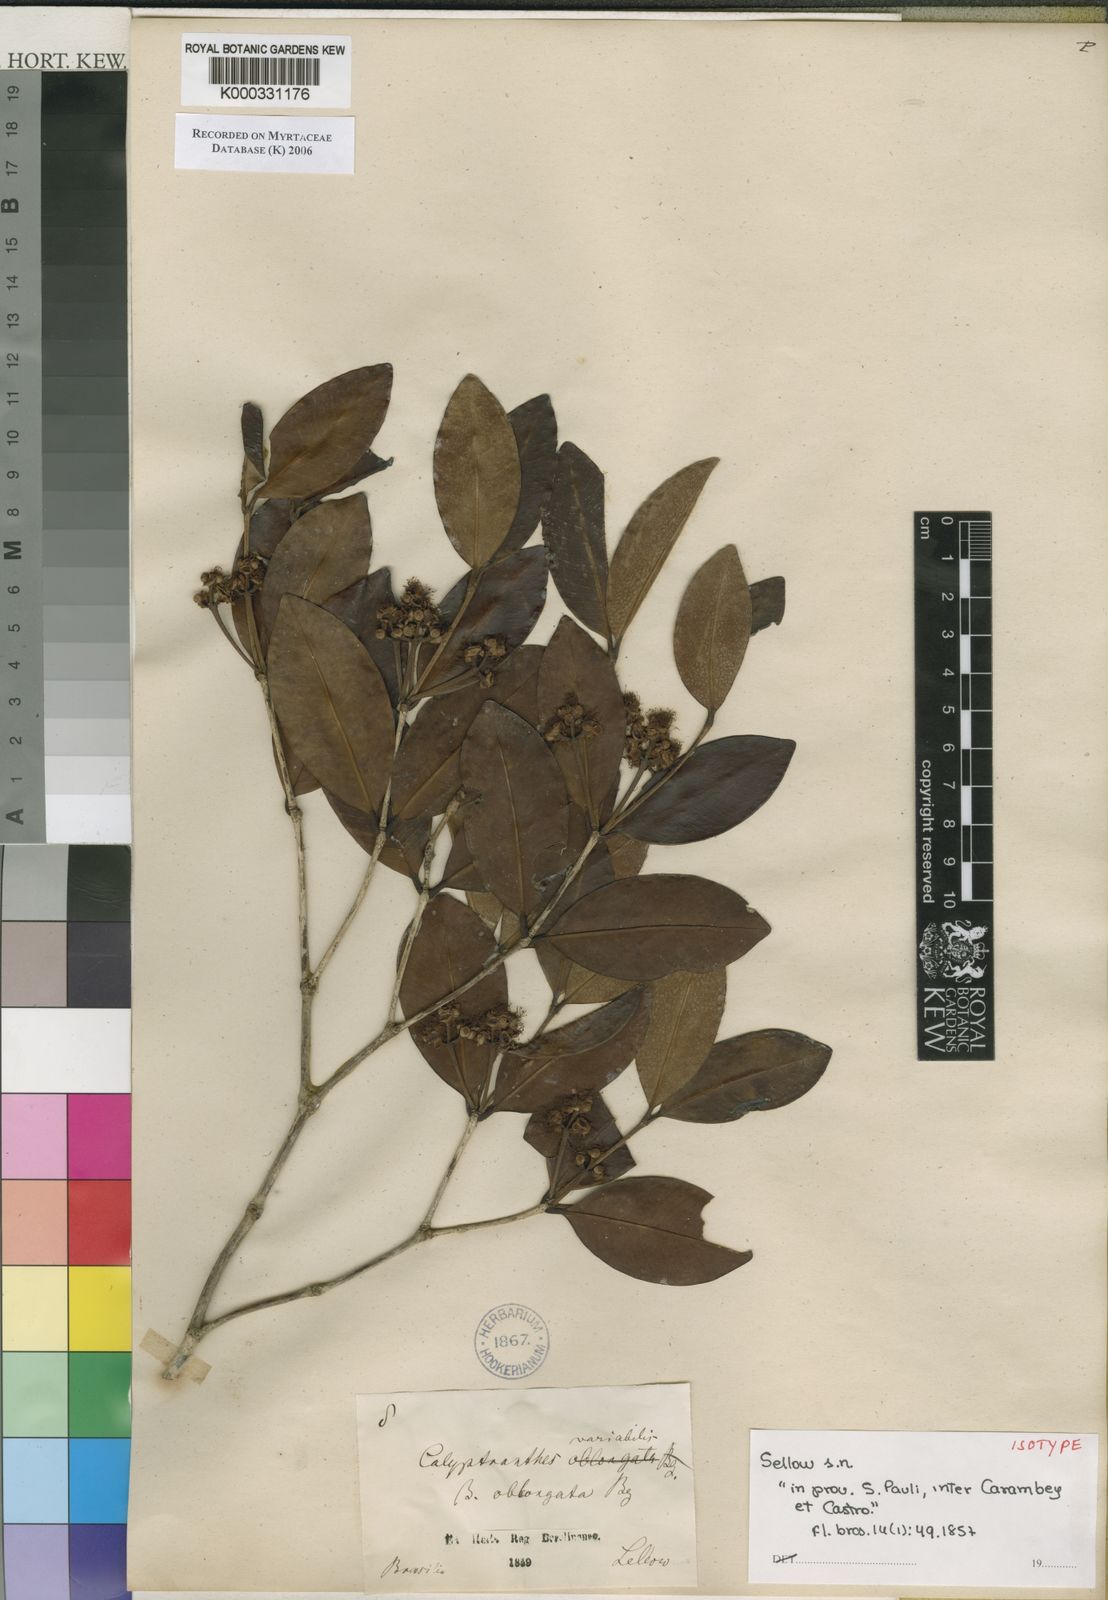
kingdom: Plantae
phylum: Tracheophyta
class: Magnoliopsida
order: Myrtales
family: Myrtaceae
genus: Myrcia
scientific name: Myrcia cruciflora
